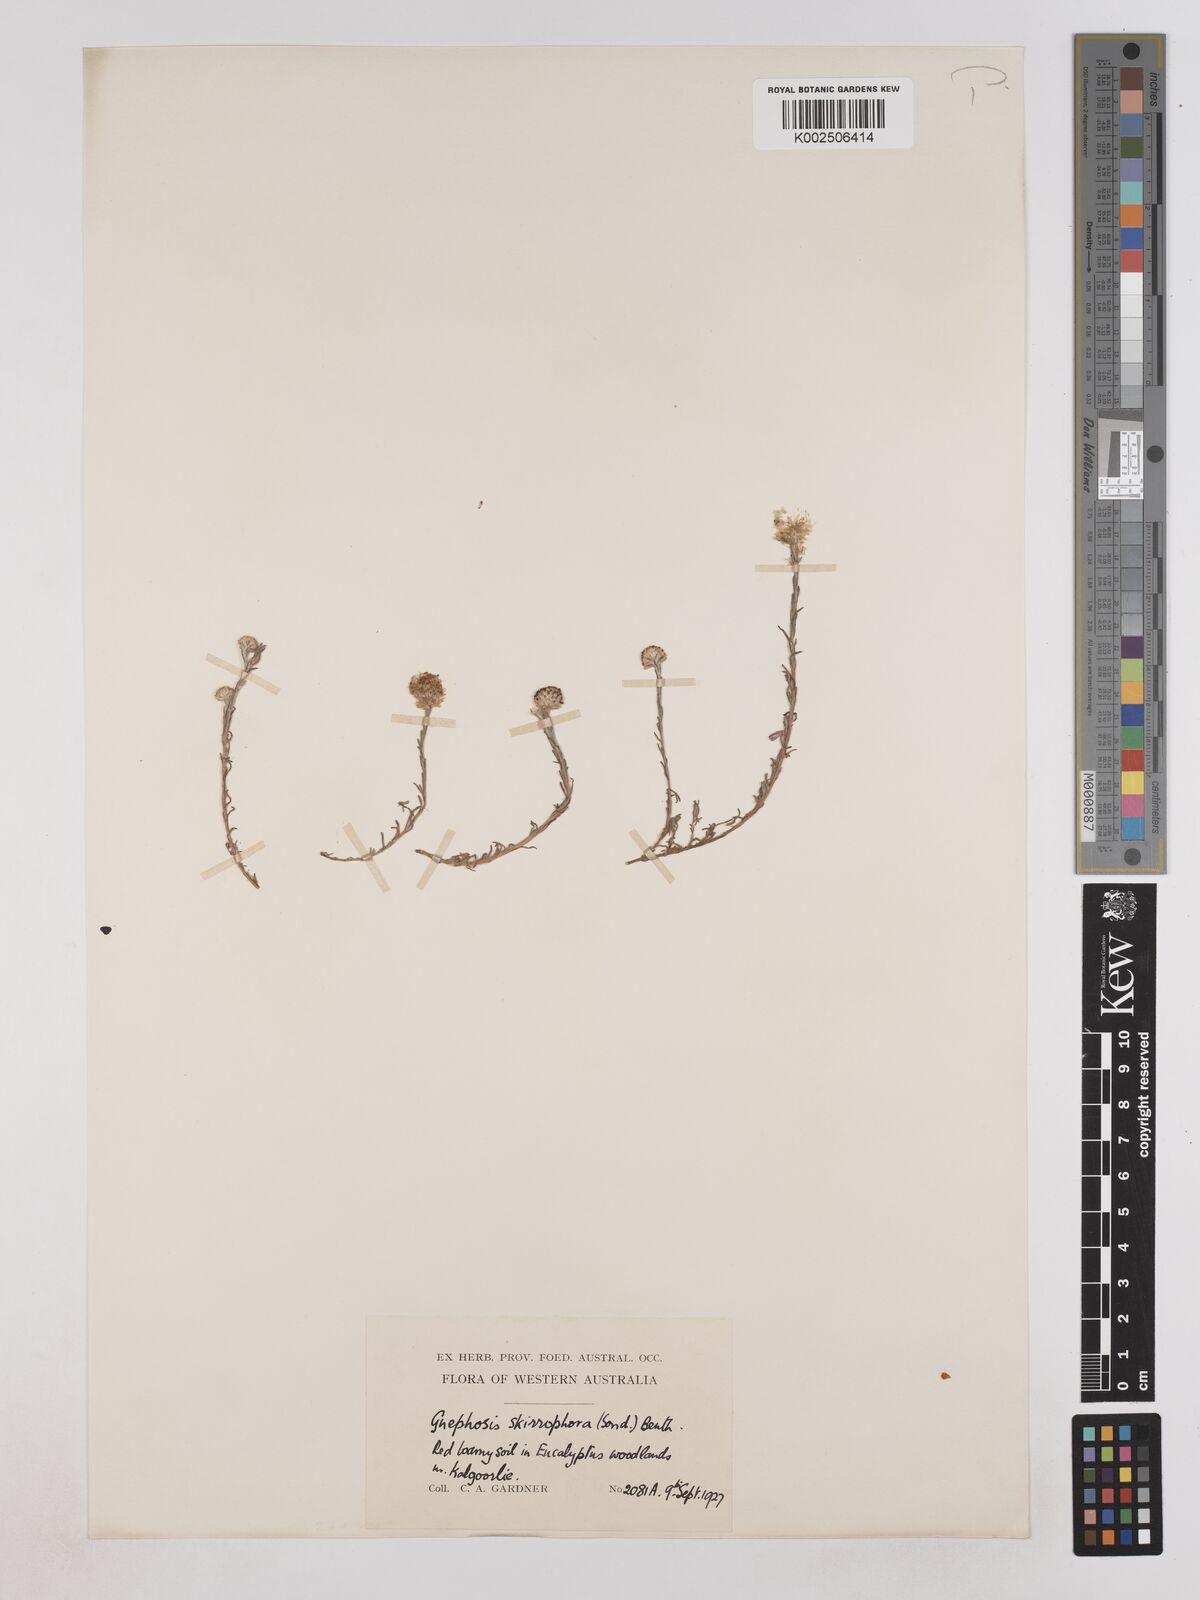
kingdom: Plantae
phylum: Tracheophyta
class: Magnoliopsida
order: Asterales
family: Asteraceae
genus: Trichanthodium
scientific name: Trichanthodium skirrophorum
